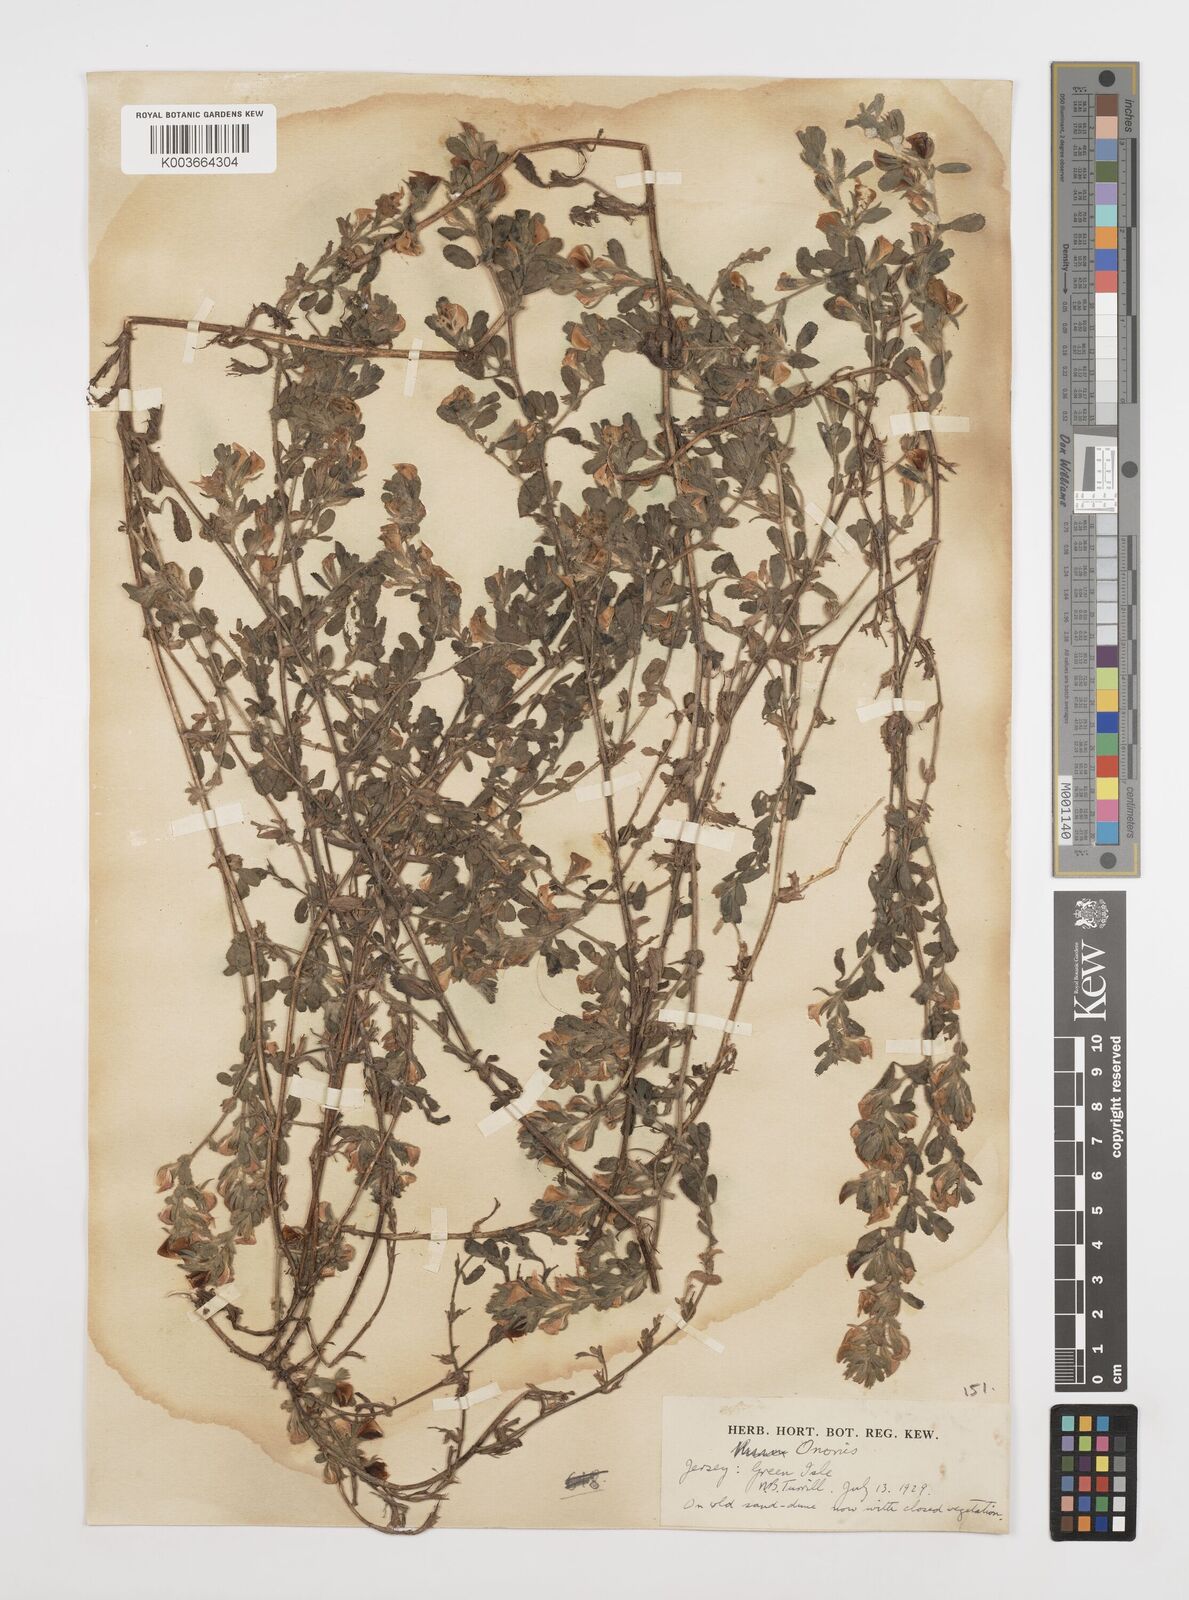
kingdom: Plantae
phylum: Tracheophyta
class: Magnoliopsida
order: Fabales
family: Fabaceae
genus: Ononis
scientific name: Ononis spinosa
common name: Spiny restharrow
